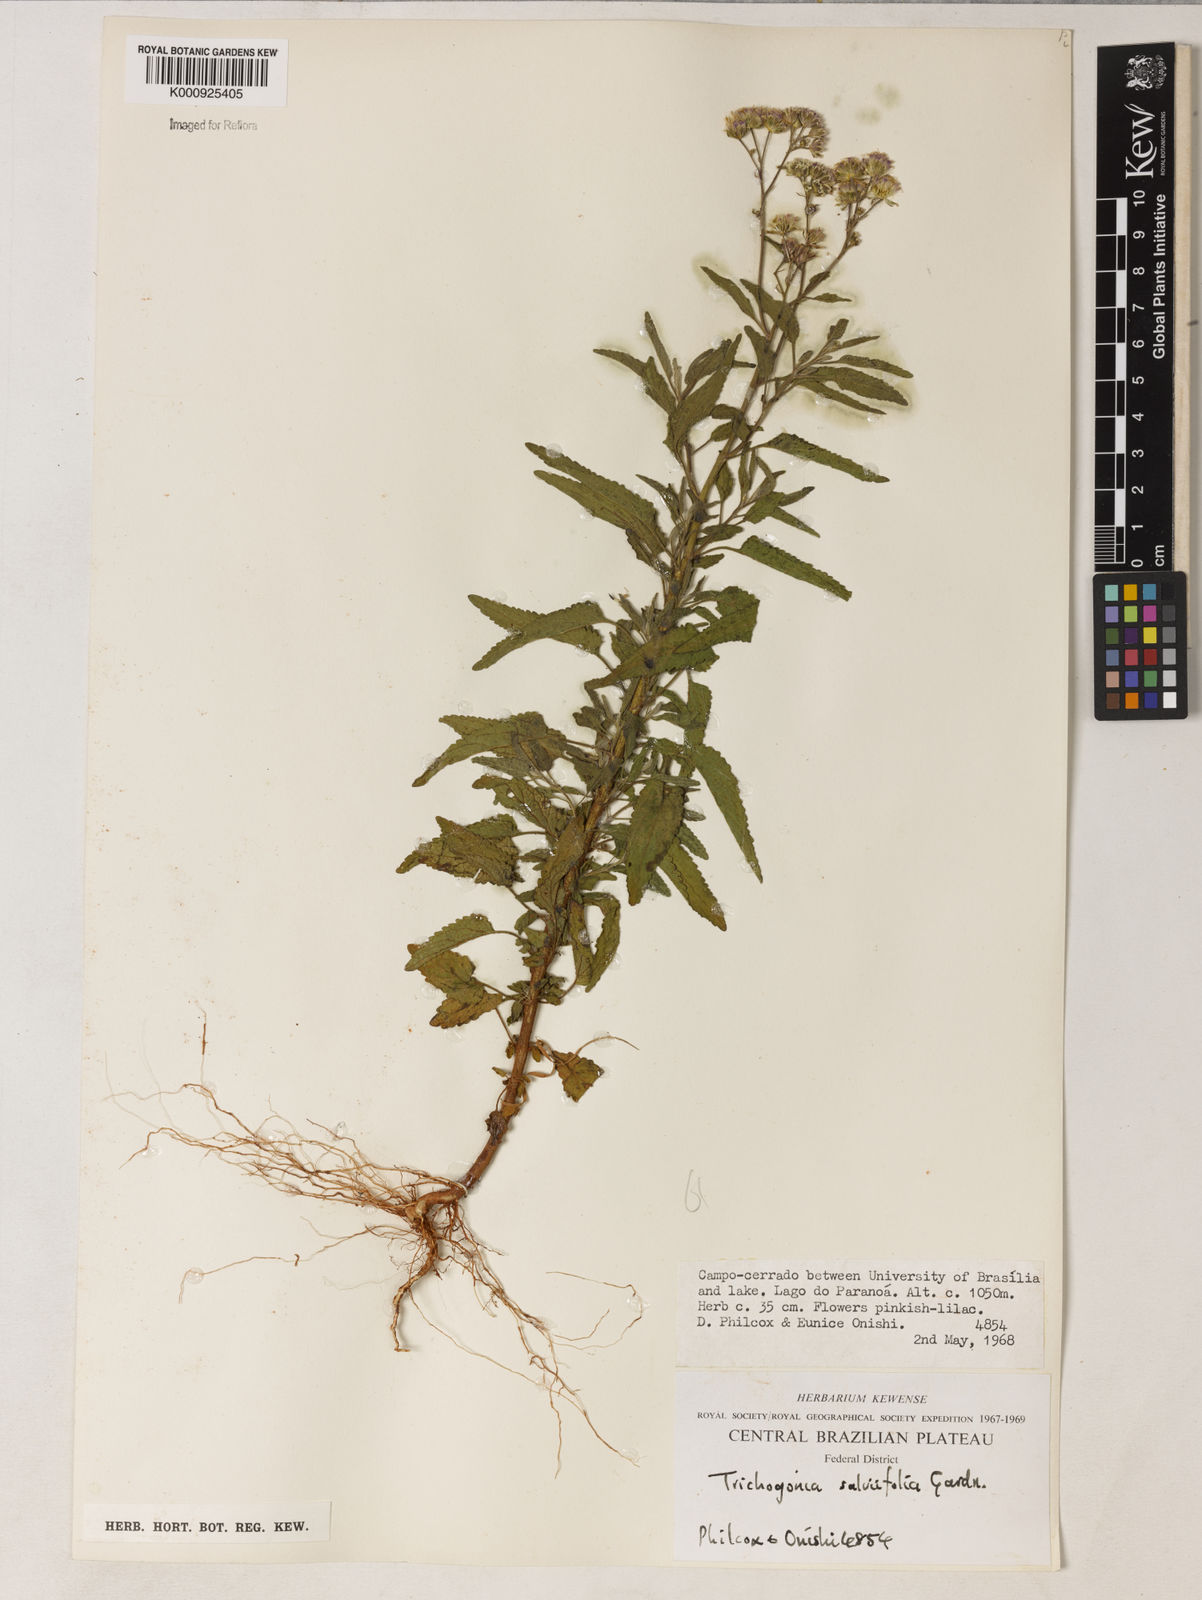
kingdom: Plantae
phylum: Tracheophyta
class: Magnoliopsida
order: Asterales
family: Asteraceae
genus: Trichogonia
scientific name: Trichogonia
